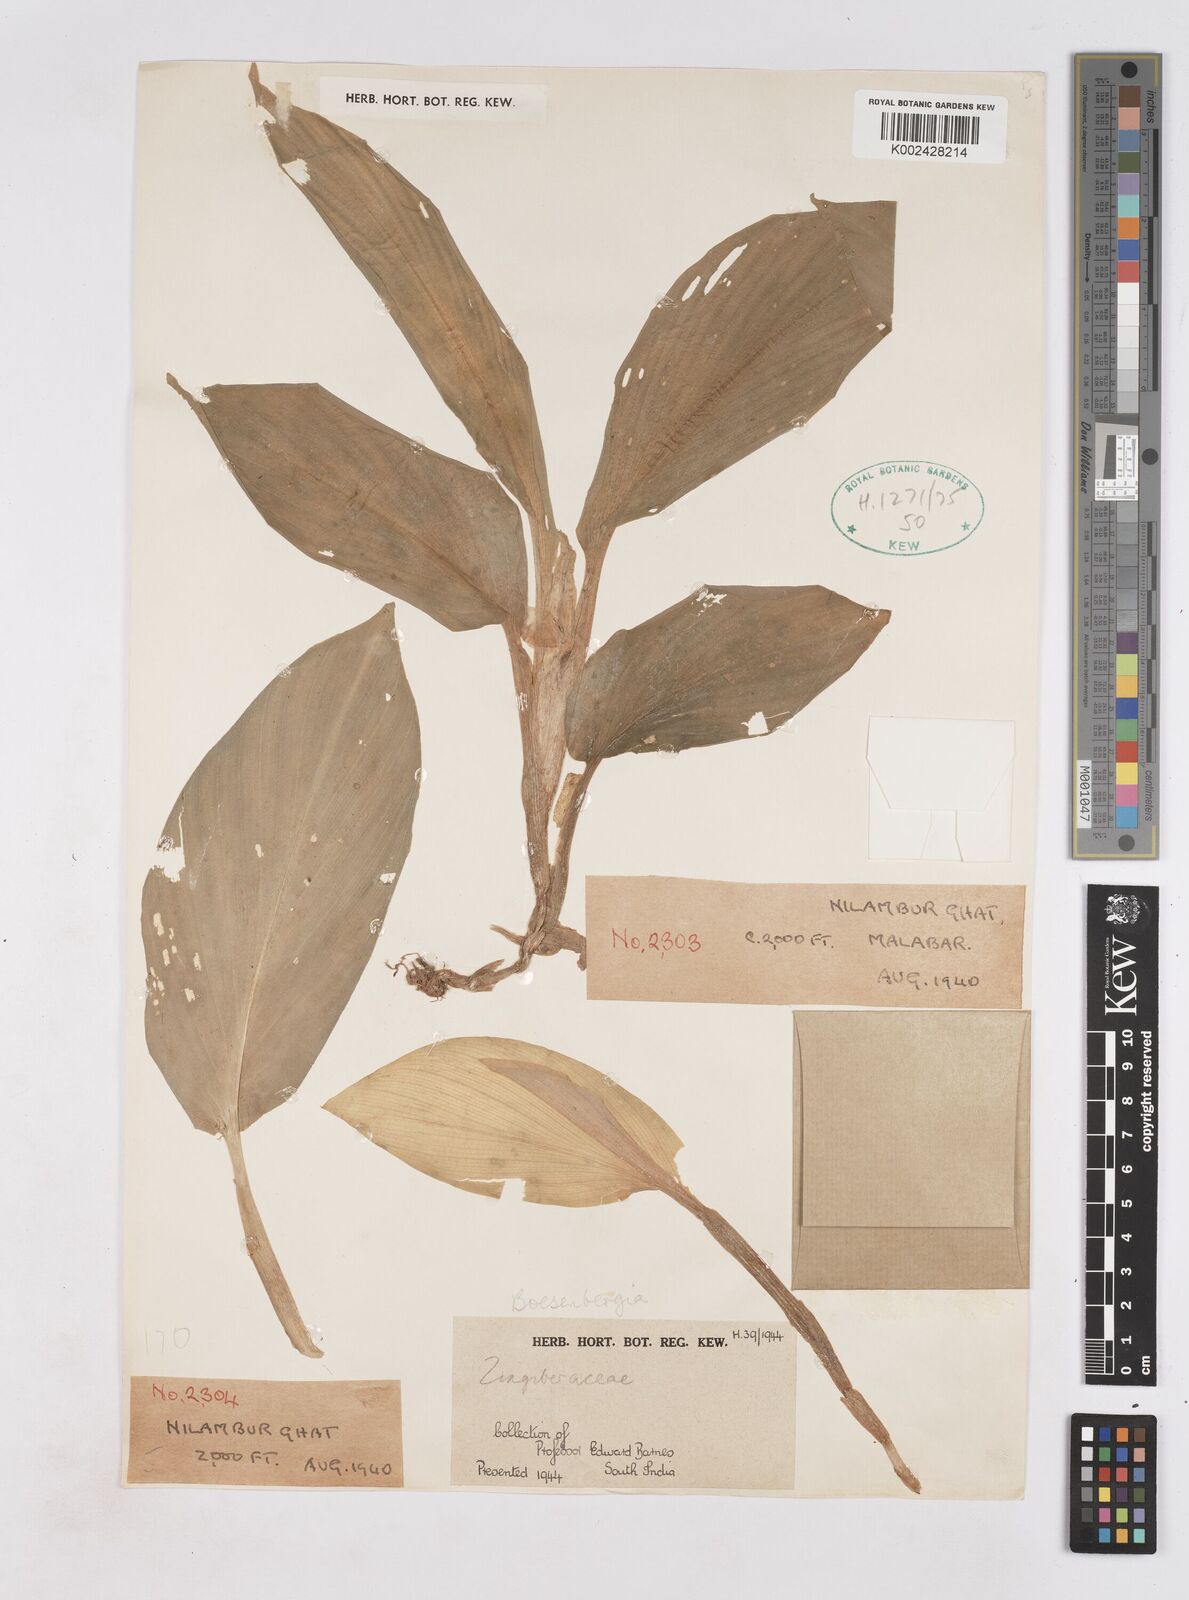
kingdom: Plantae
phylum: Tracheophyta
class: Liliopsida
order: Zingiberales
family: Zingiberaceae
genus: Boesenbergia
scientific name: Boesenbergia
